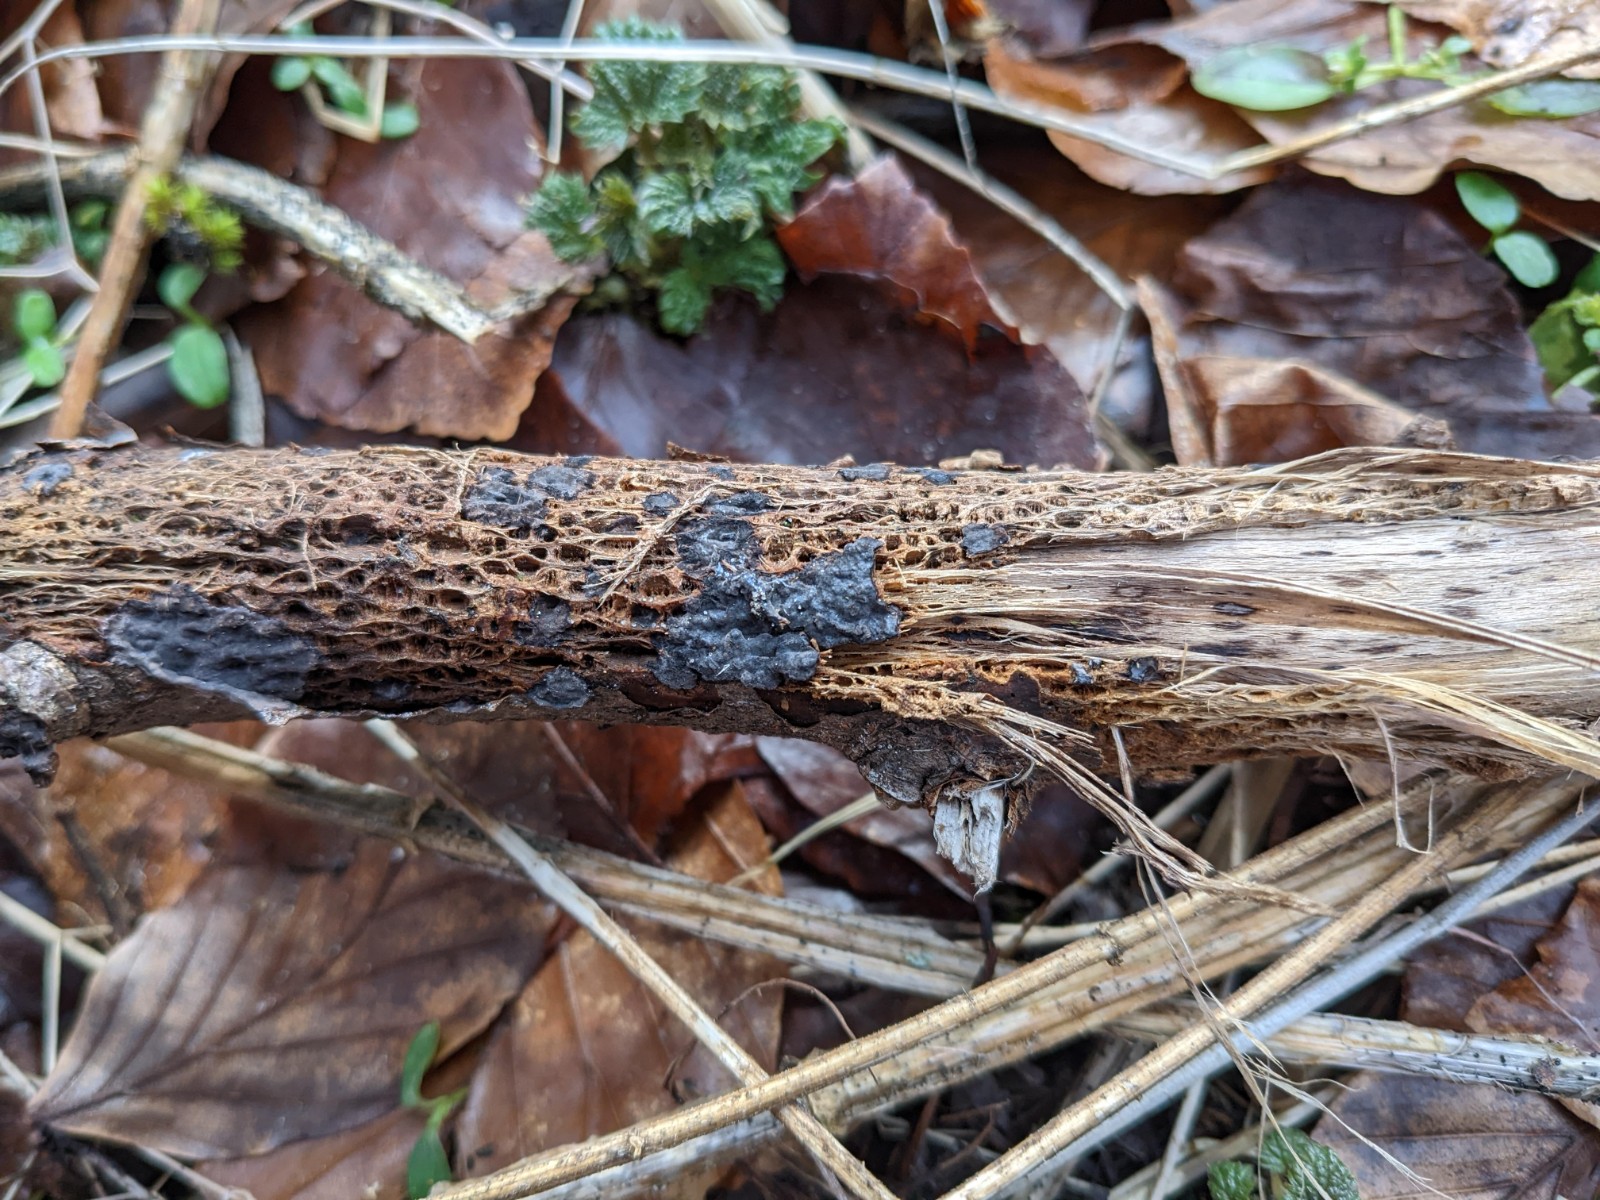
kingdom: Fungi
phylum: Basidiomycota
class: Agaricomycetes
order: Russulales
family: Peniophoraceae
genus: Peniophora
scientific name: Peniophora rufomarginata
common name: linde-voksskind
